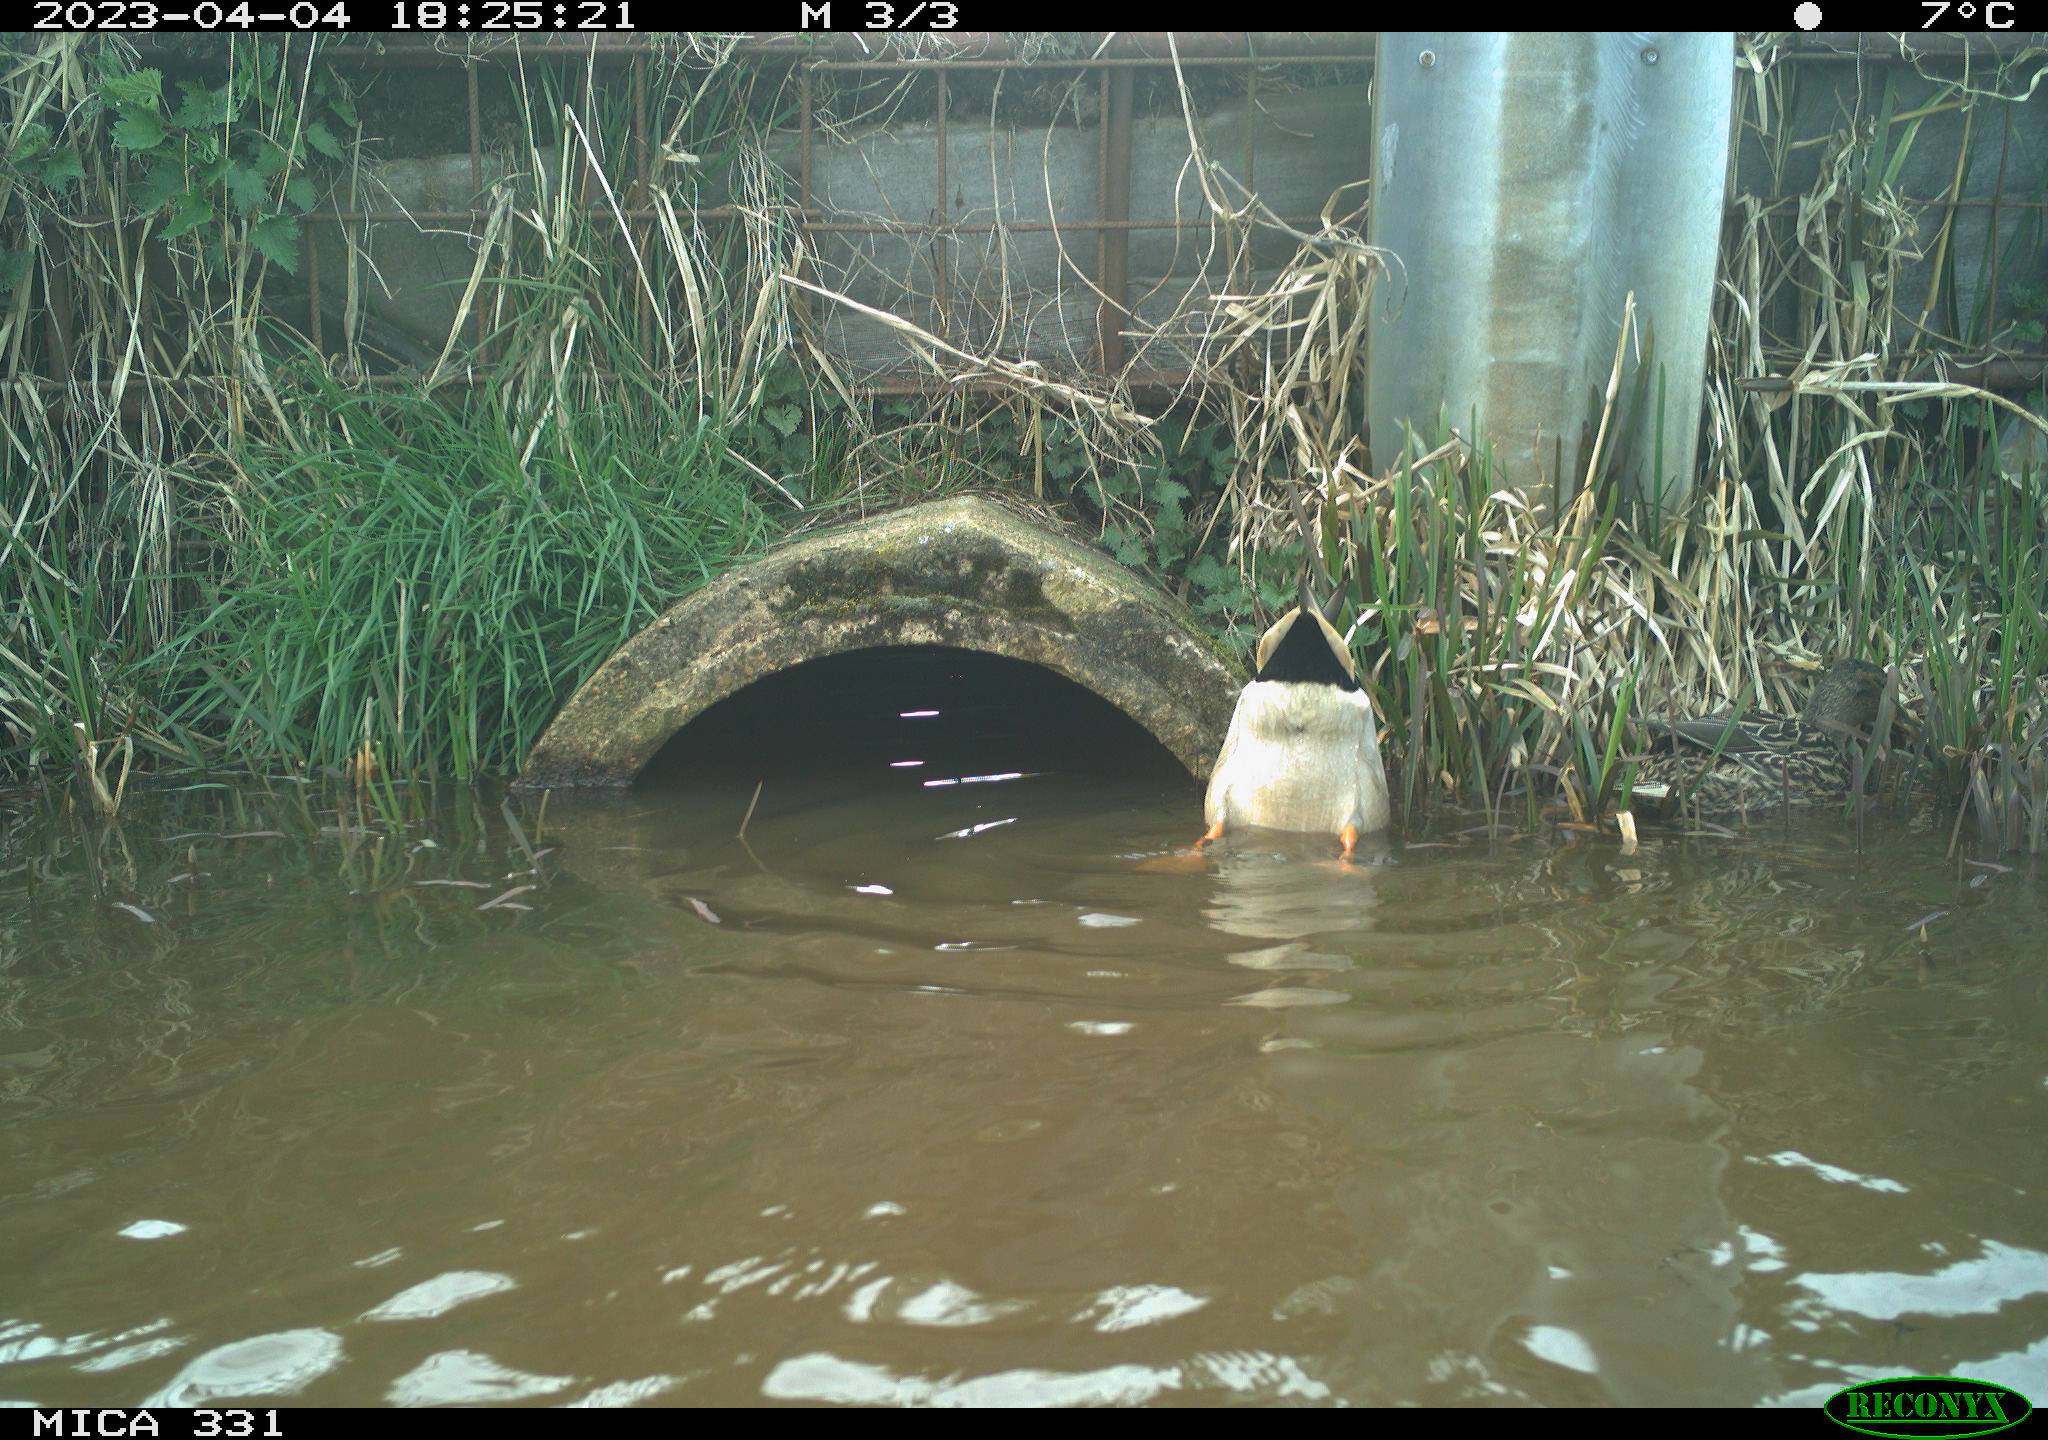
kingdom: Animalia
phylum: Chordata
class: Aves
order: Anseriformes
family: Anatidae
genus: Anas
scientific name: Anas
